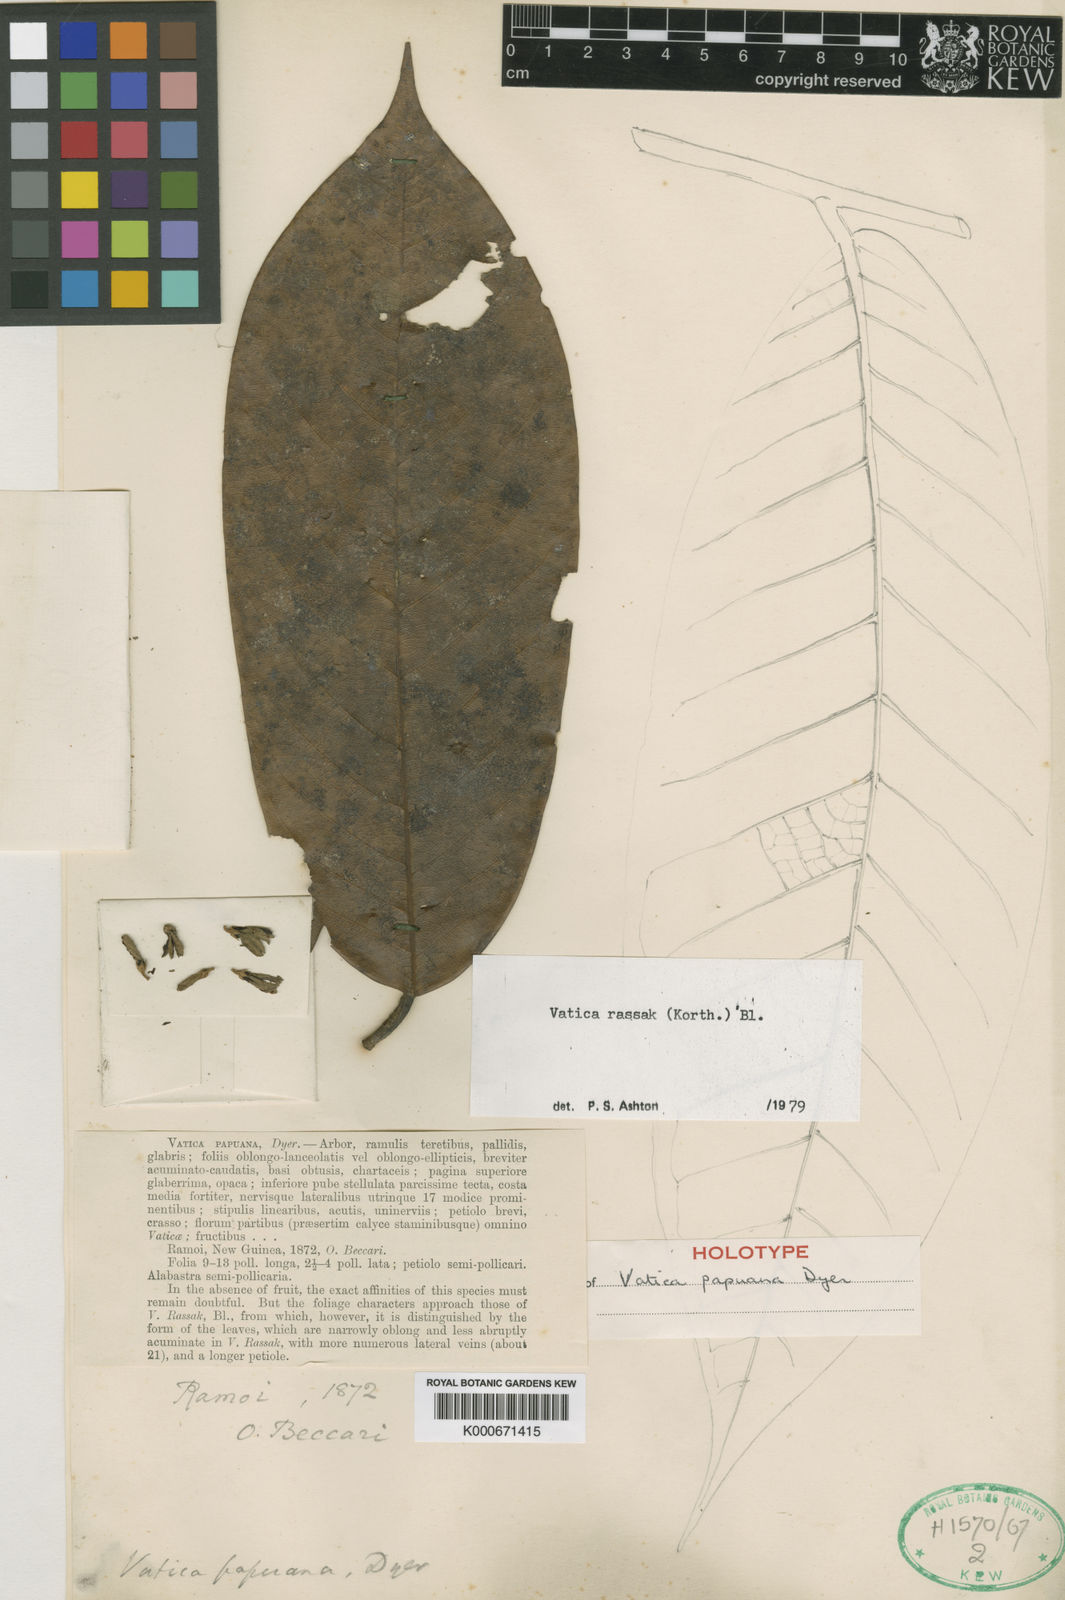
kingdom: Plantae
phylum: Tracheophyta
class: Magnoliopsida
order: Malvales
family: Dipterocarpaceae
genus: Vatica
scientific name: Vatica rassak
